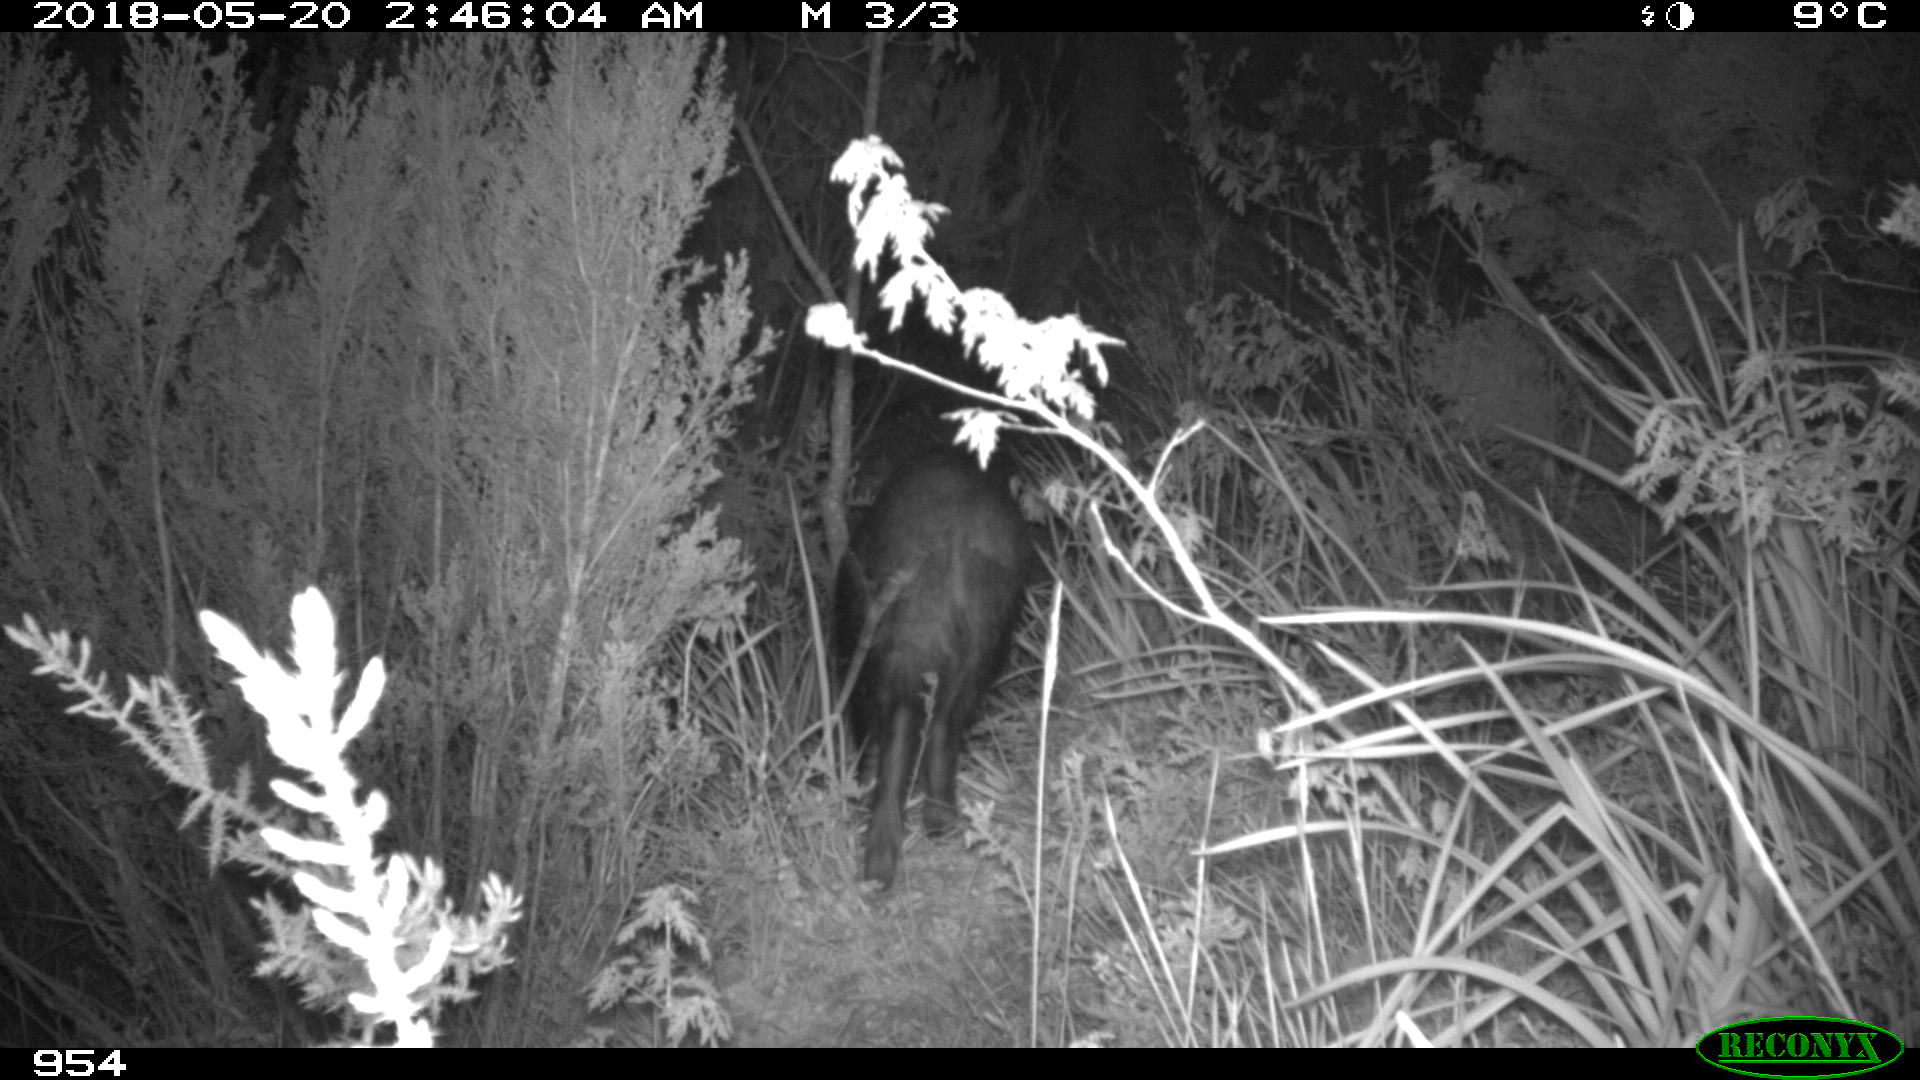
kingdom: Animalia
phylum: Chordata
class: Mammalia
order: Artiodactyla
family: Suidae
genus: Sus
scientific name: Sus scrofa
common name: Wild boar
